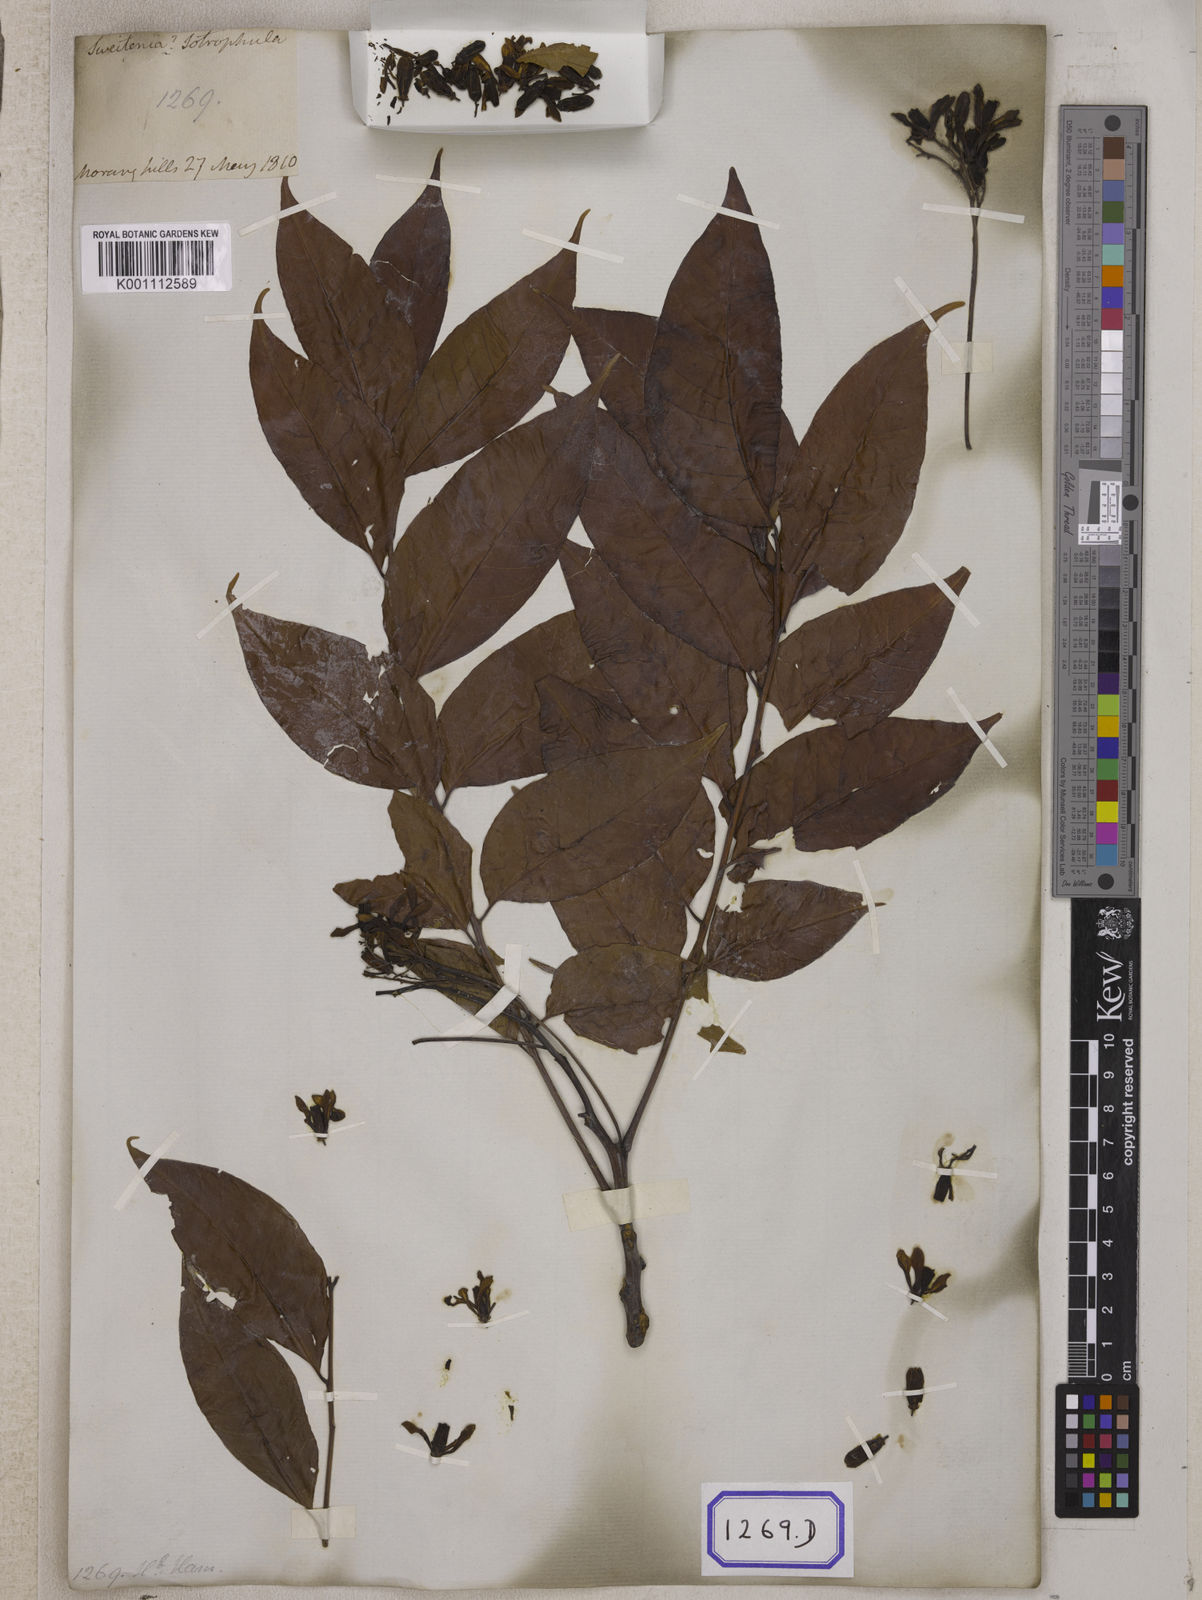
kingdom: Plantae
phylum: Tracheophyta
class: Magnoliopsida
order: Sapindales
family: Meliaceae
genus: Chukrasia
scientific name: Chukrasia tabularis
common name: Chittagong wood
